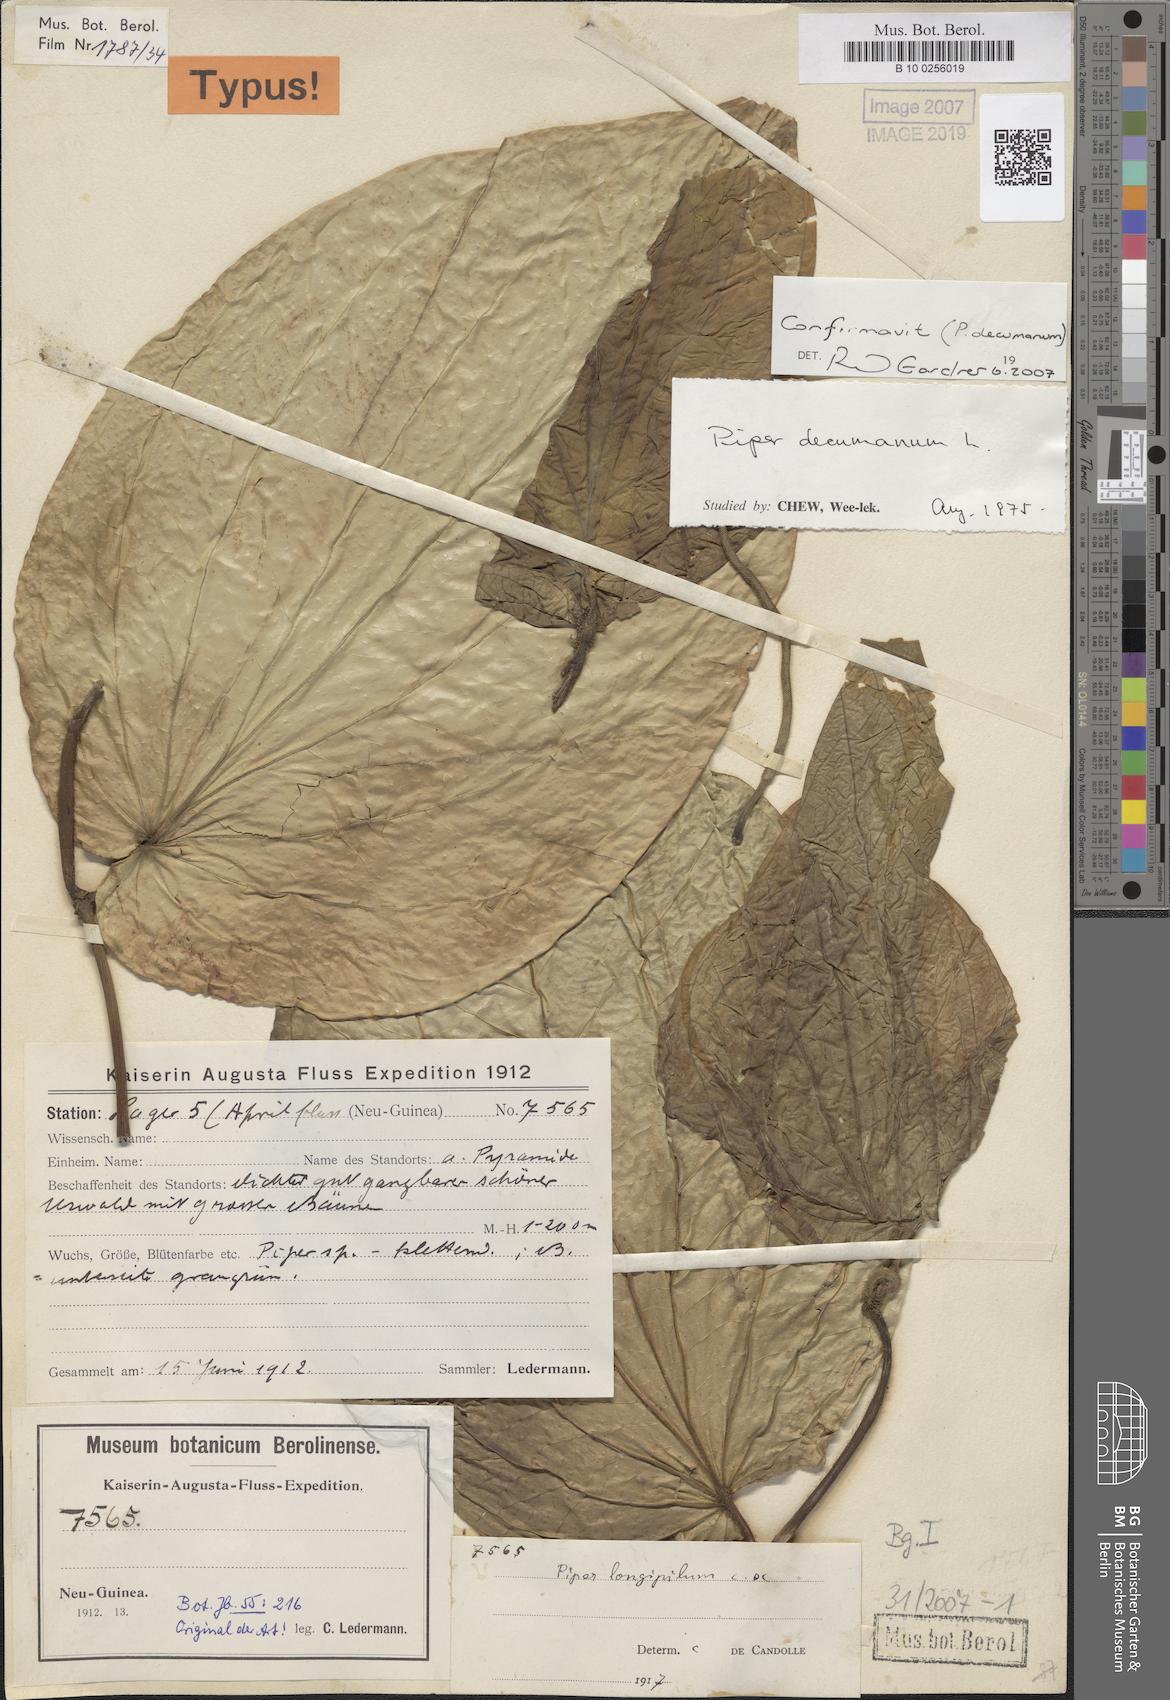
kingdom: Plantae
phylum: Tracheophyta
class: Magnoliopsida
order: Piperales
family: Piperaceae
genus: Macropiper
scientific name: Macropiper methysticum
